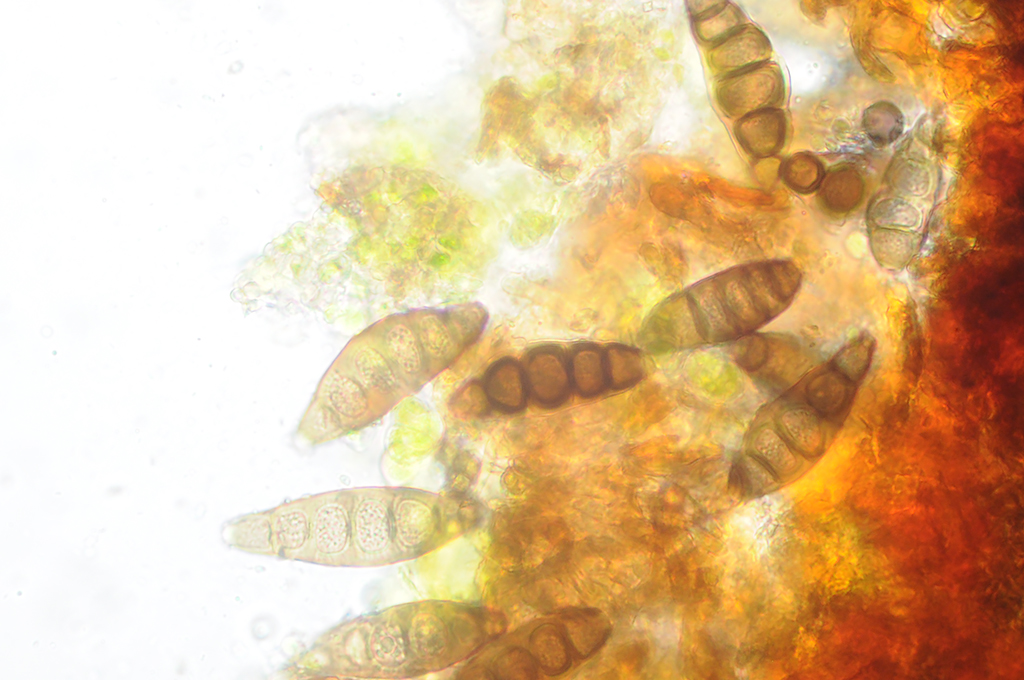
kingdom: Fungi
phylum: Ascomycota
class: Sordariomycetes
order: Diaporthales
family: Coryneaceae
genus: Coryneum
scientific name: Coryneum lanciforme
